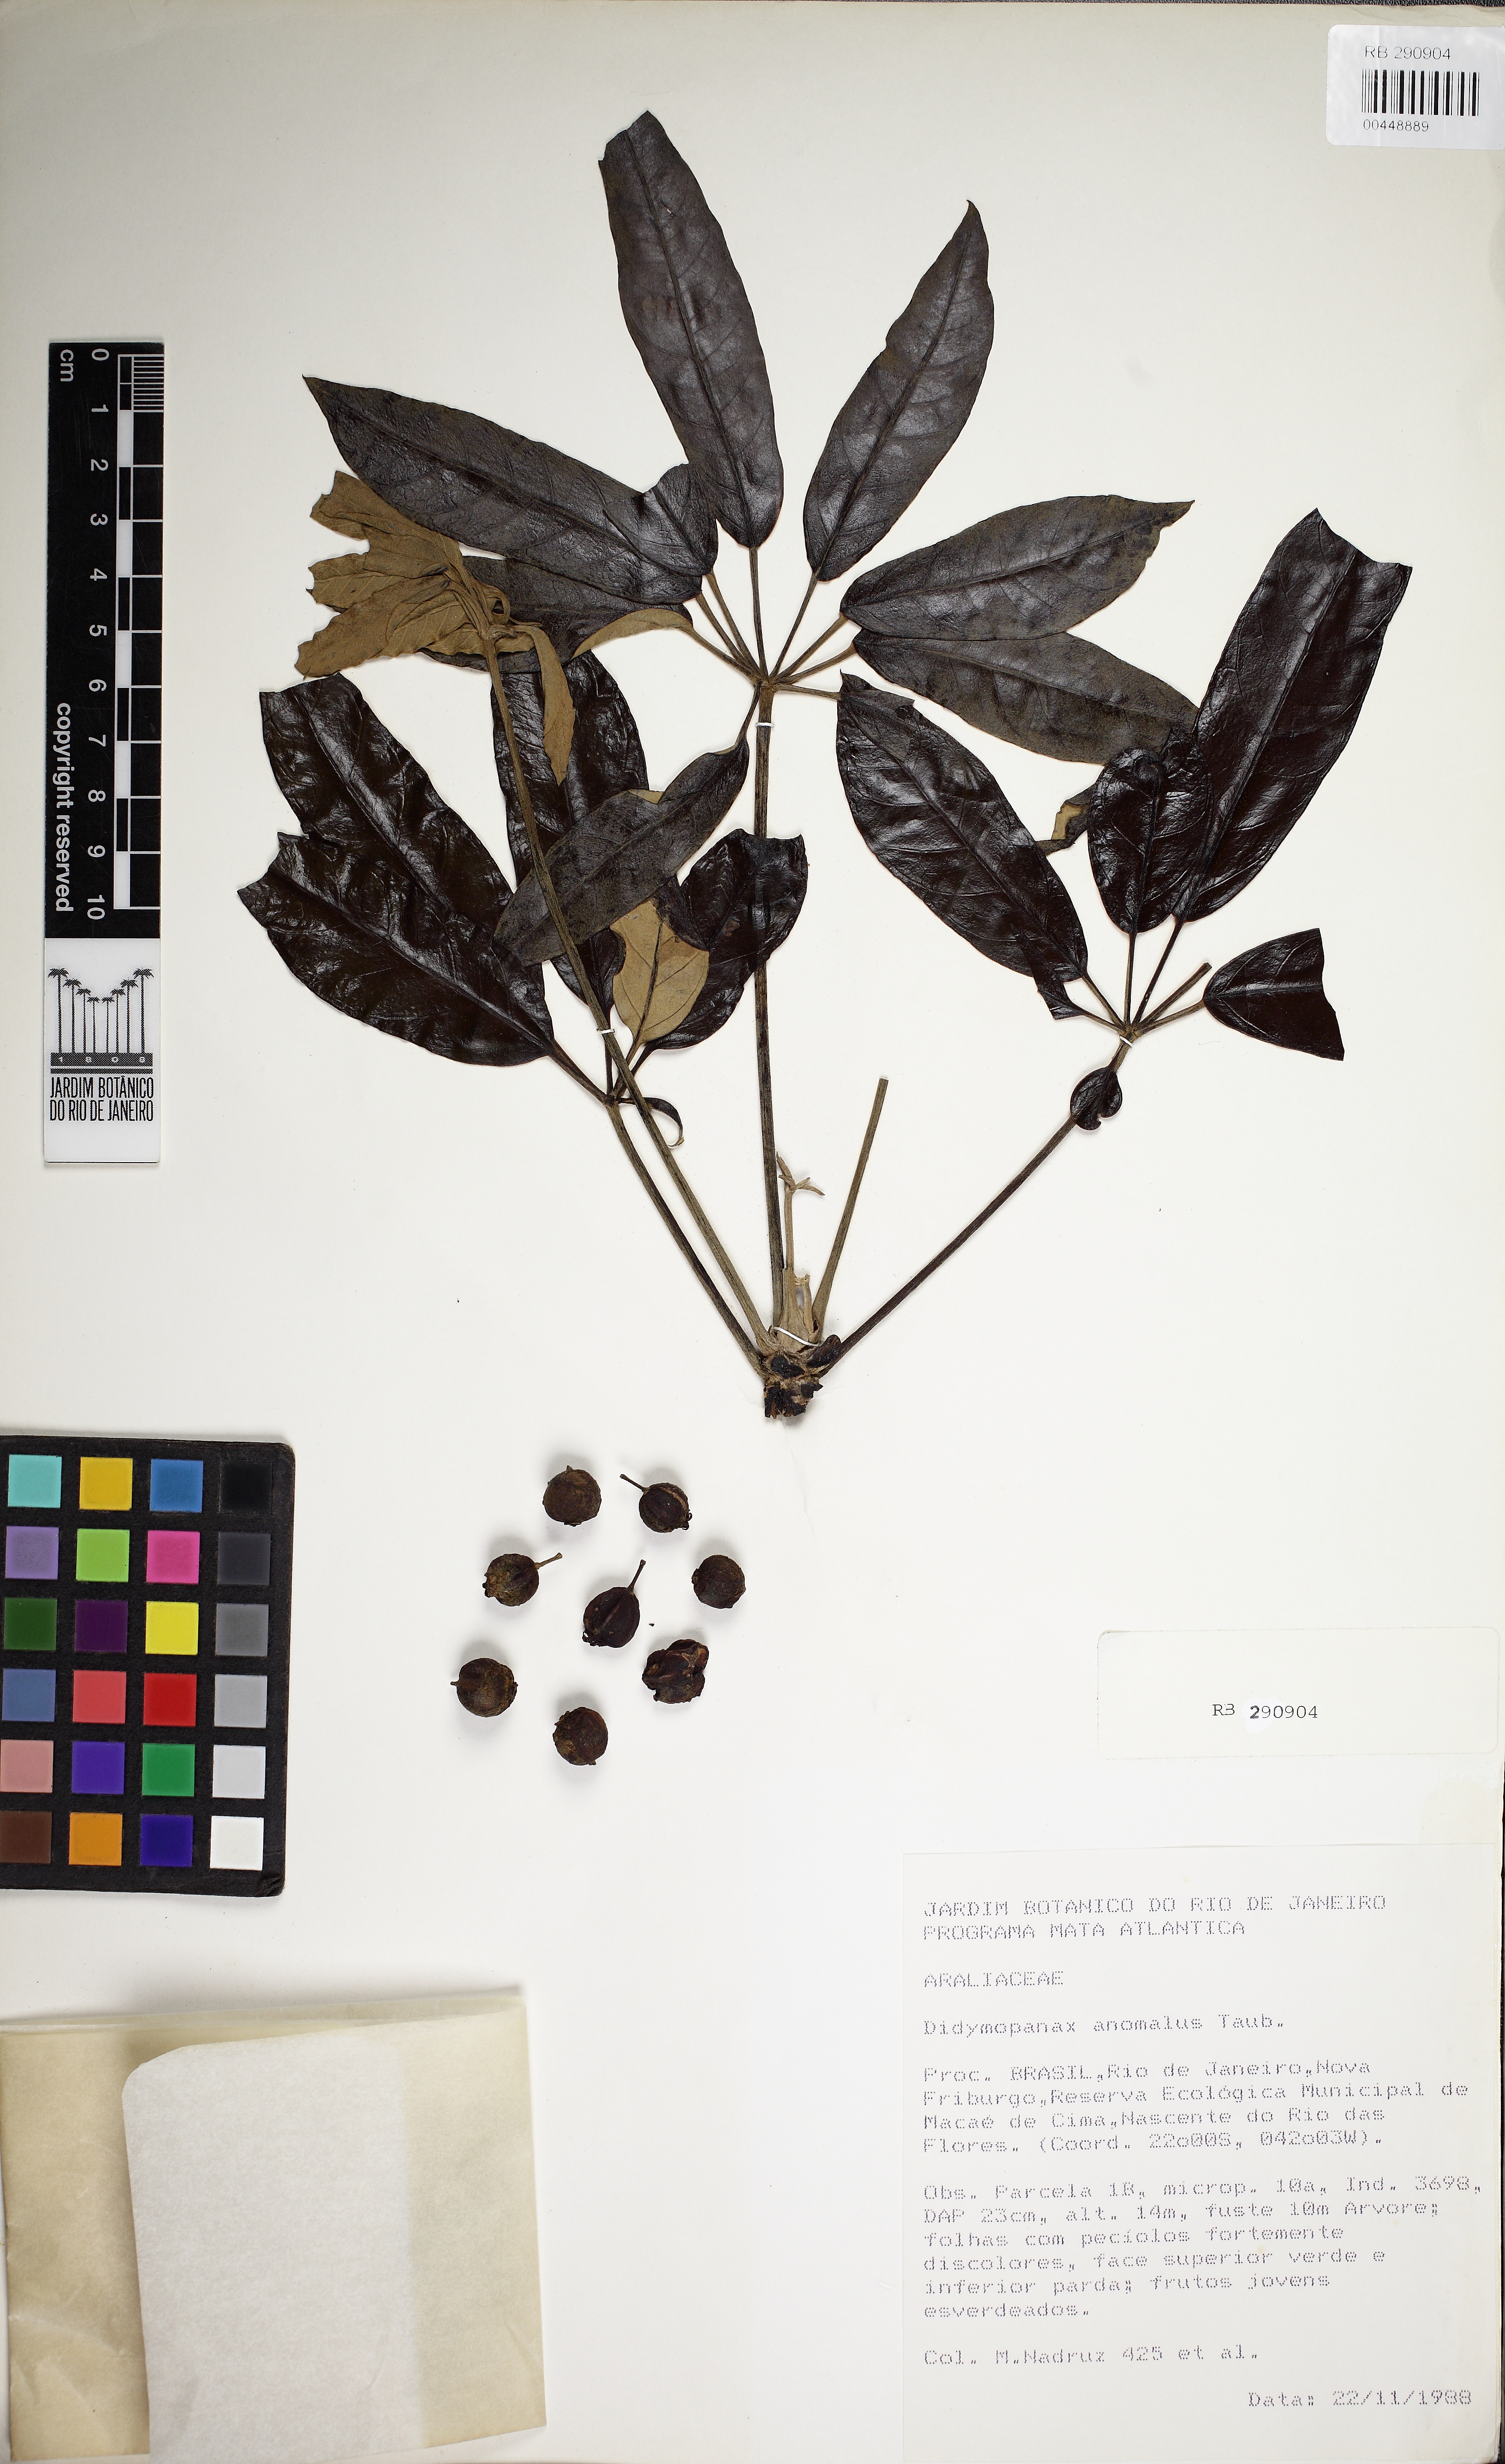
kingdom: Plantae
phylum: Tracheophyta
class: Magnoliopsida
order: Apiales
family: Araliaceae
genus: Didymopanax
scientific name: Didymopanax angustissimus
